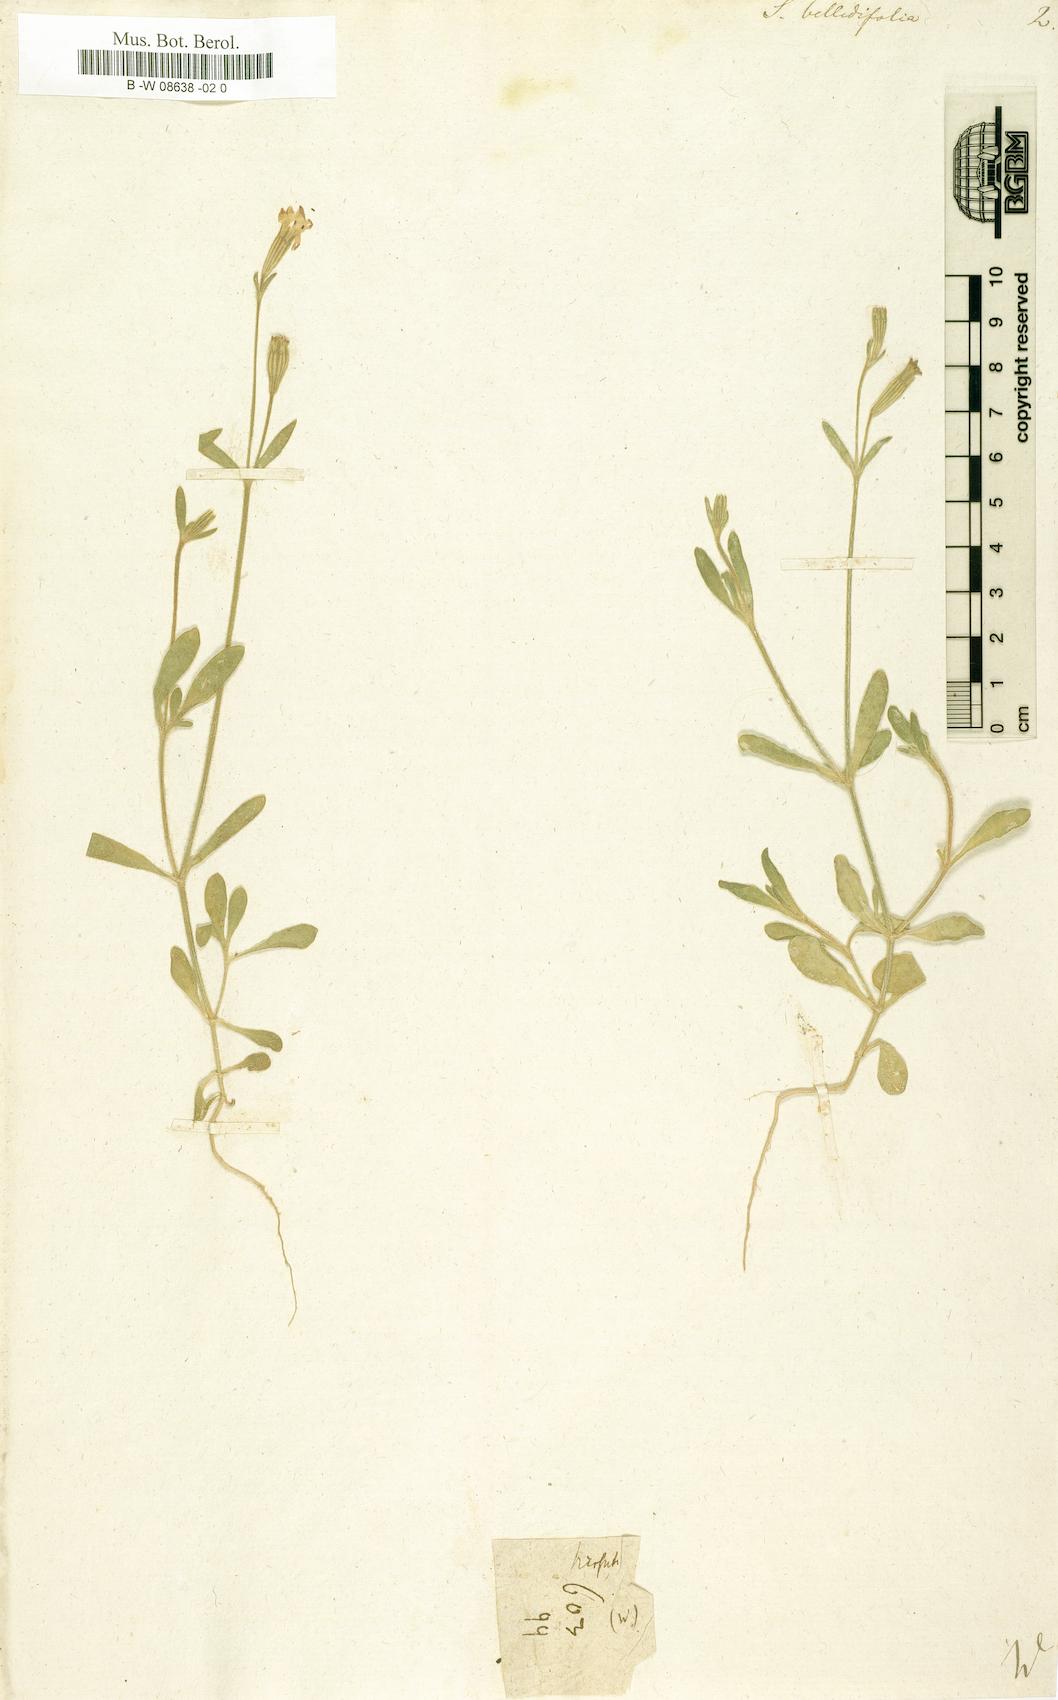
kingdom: Plantae
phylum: Tracheophyta
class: Magnoliopsida
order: Caryophyllales
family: Caryophyllaceae
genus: Silene
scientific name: Silene bellidifolia
